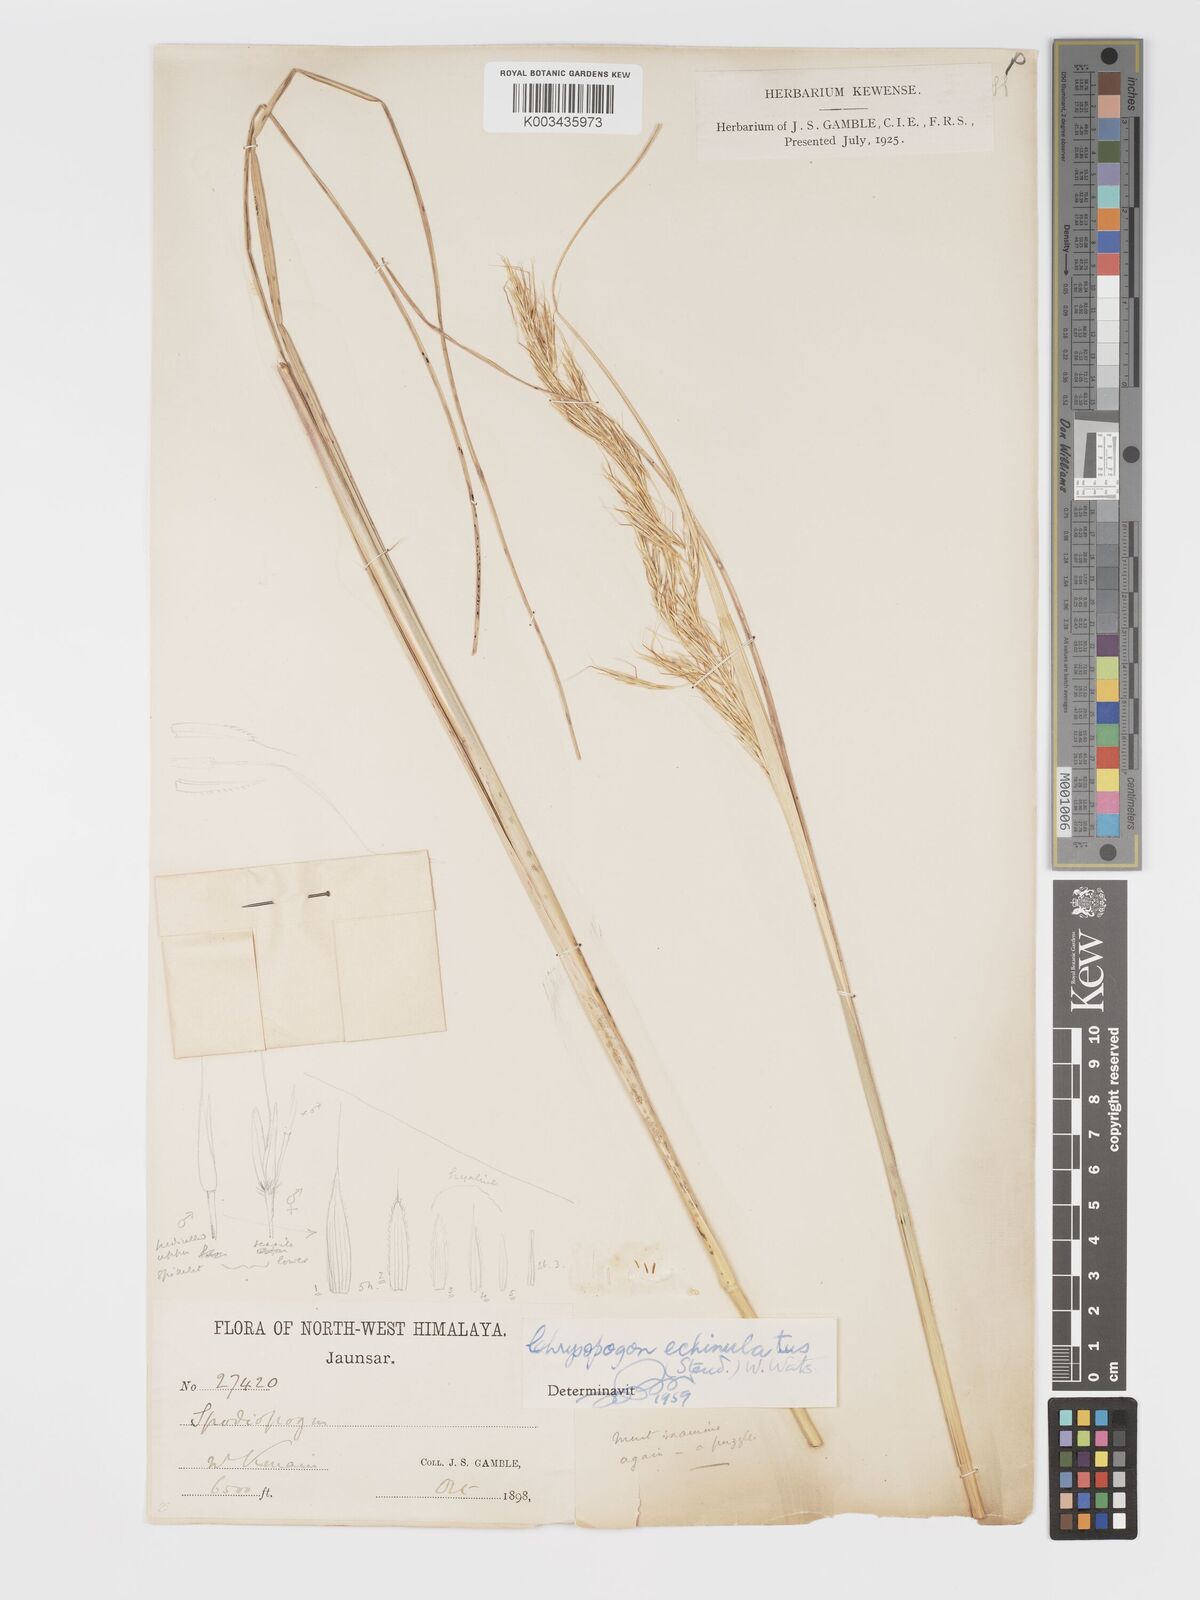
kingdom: Plantae
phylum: Tracheophyta
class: Liliopsida
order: Poales
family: Poaceae
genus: Chrysopogon
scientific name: Chrysopogon gryllus
